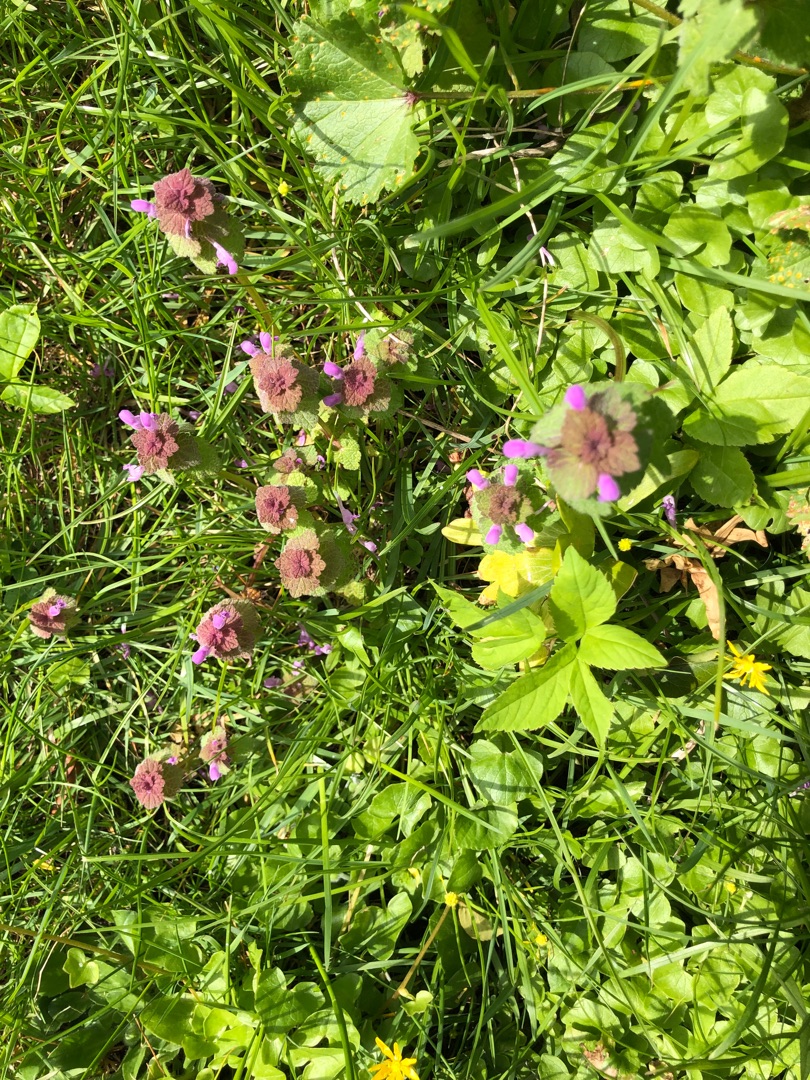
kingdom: Plantae
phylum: Tracheophyta
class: Magnoliopsida
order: Lamiales
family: Lamiaceae
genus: Lamium
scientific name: Lamium purpureum
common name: Rød tvetand
